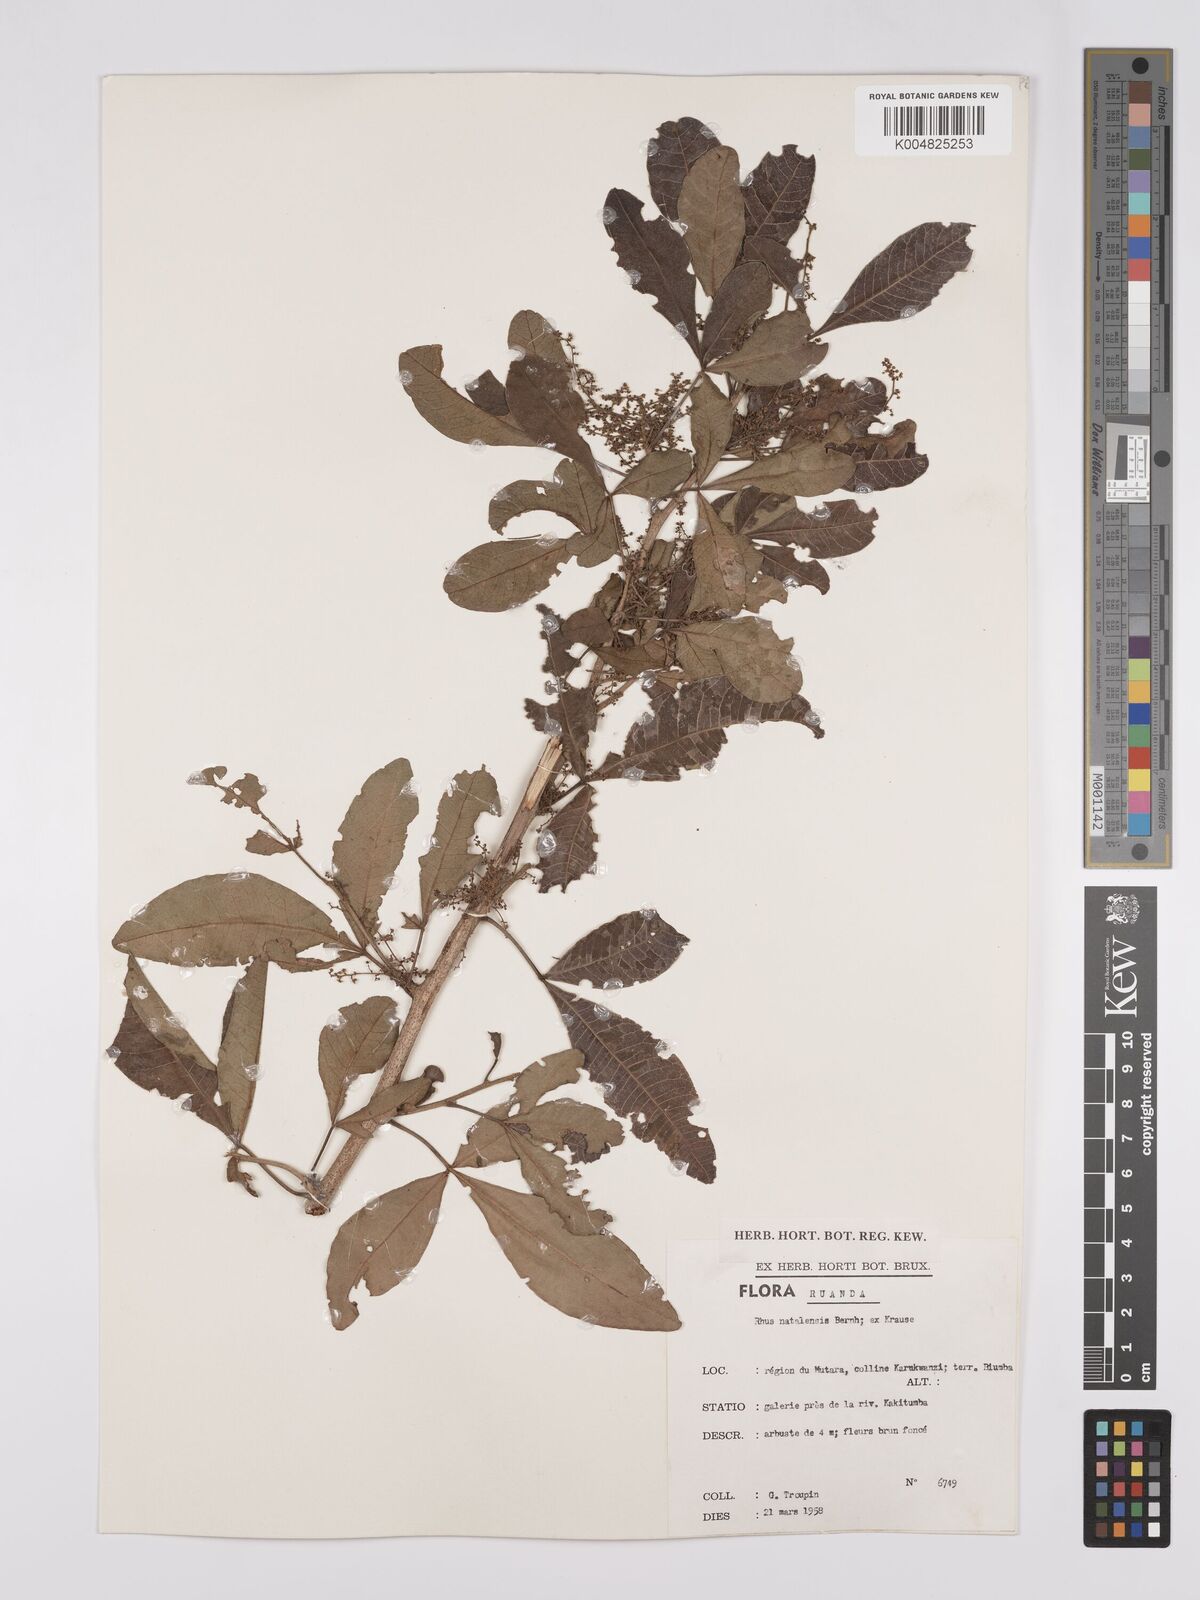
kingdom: Plantae
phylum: Tracheophyta
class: Magnoliopsida
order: Sapindales
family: Anacardiaceae
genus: Searsia
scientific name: Searsia natalensis
